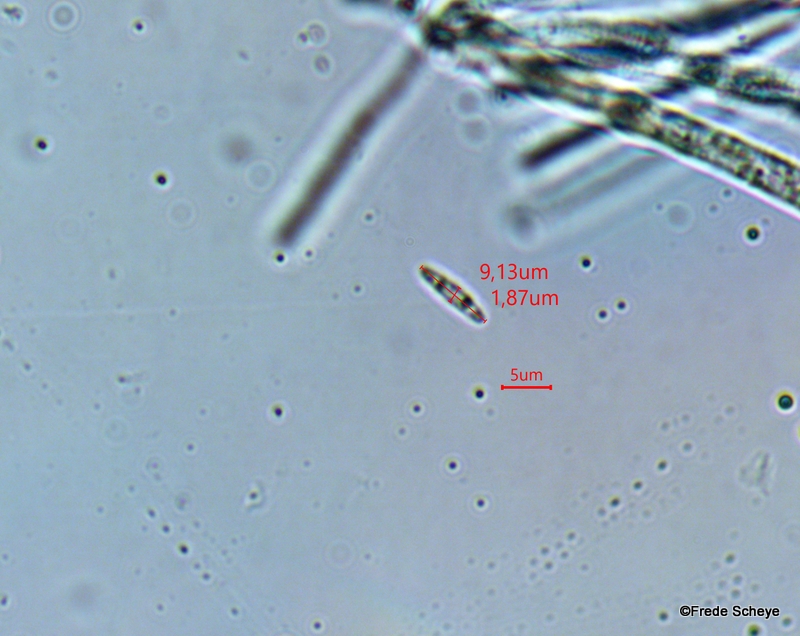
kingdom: Fungi
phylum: Ascomycota
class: Leotiomycetes
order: Helotiales
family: Chlorociboriaceae
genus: Chlorociboria
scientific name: Chlorociboria aeruginascens
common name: almindelig grønskive
